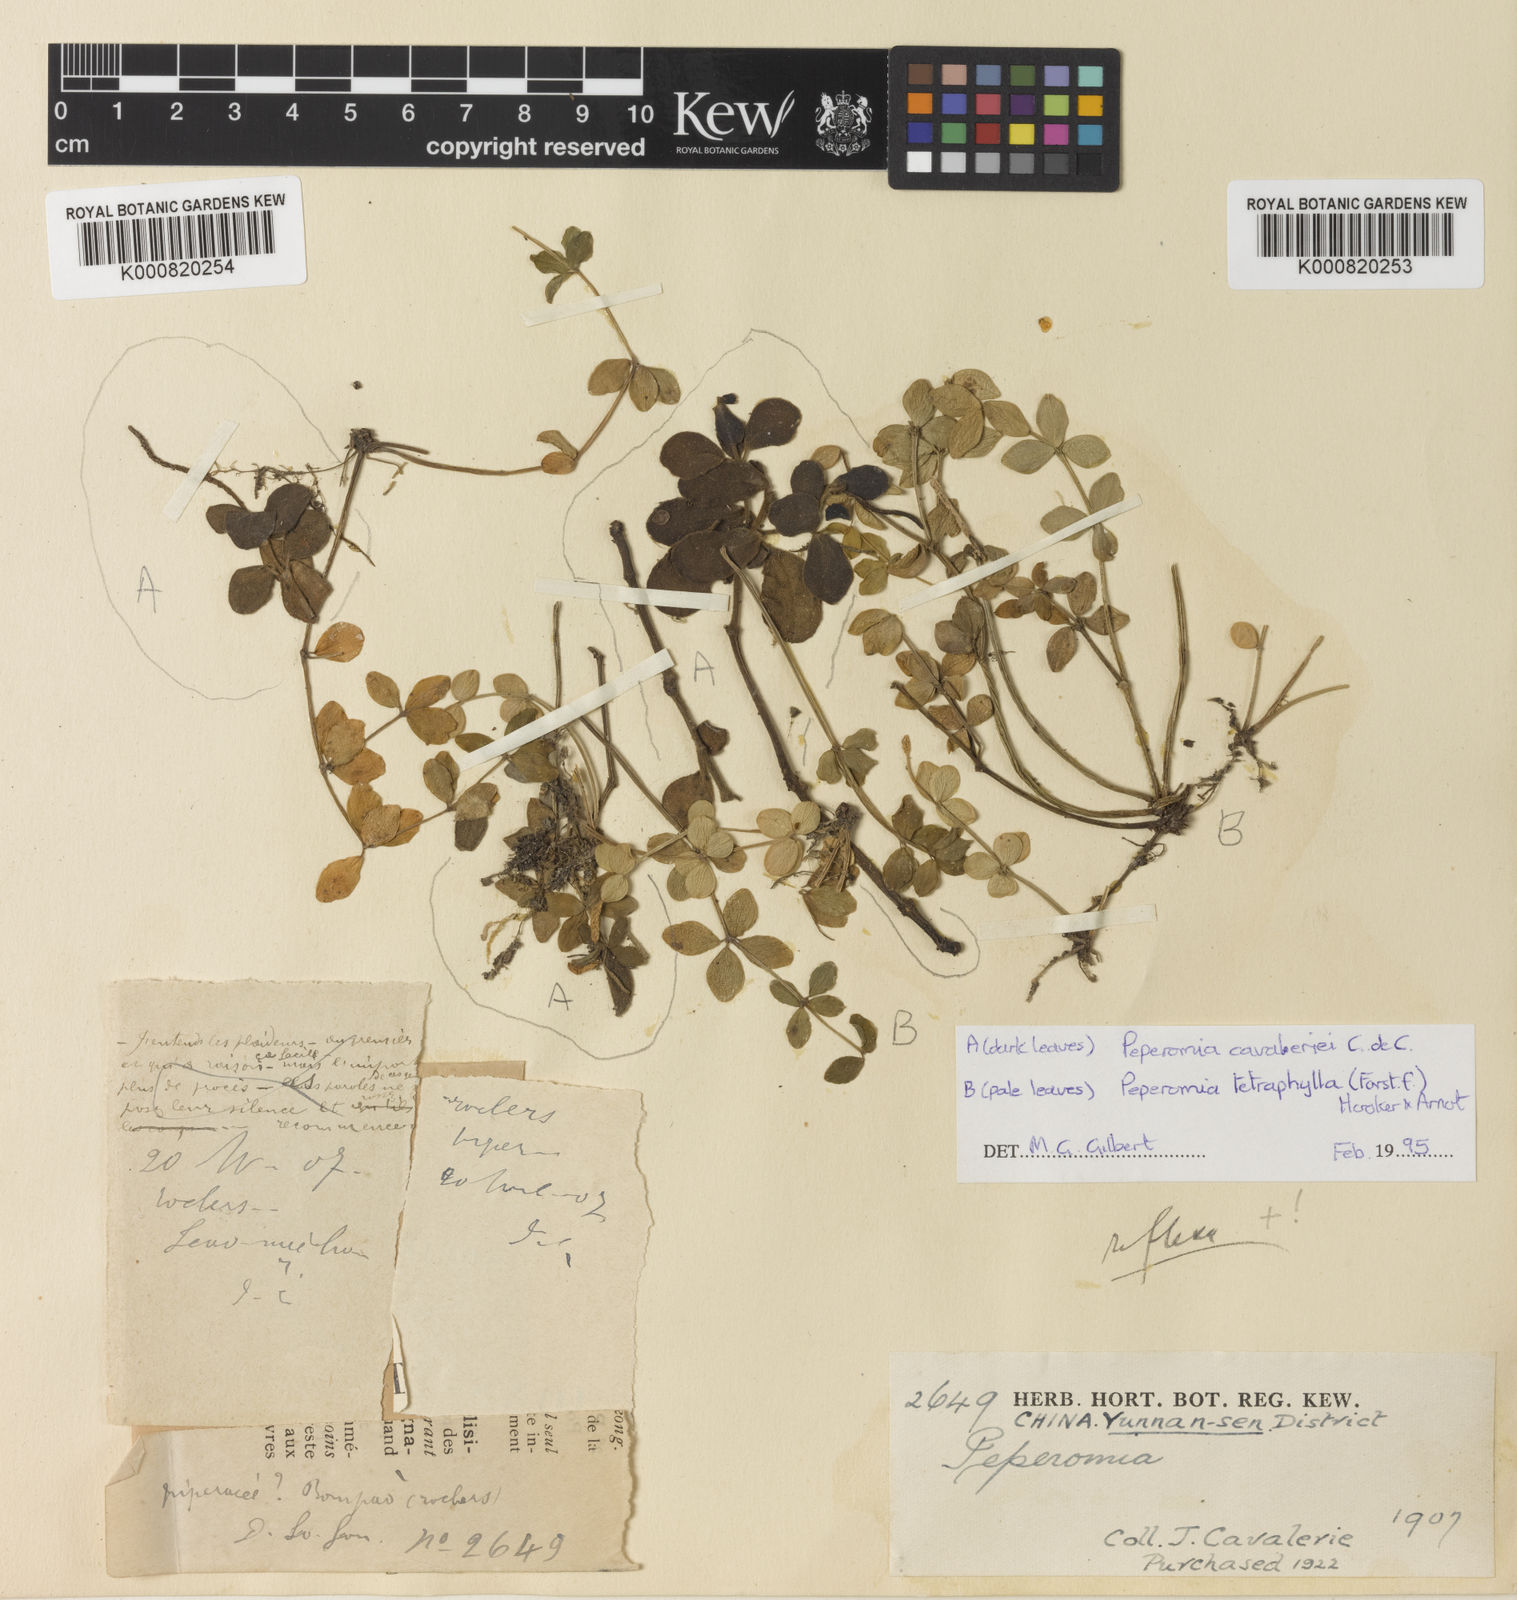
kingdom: Plantae
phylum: Tracheophyta
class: Magnoliopsida
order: Piperales
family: Piperaceae
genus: Peperomia
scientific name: Peperomia cavaleriei
